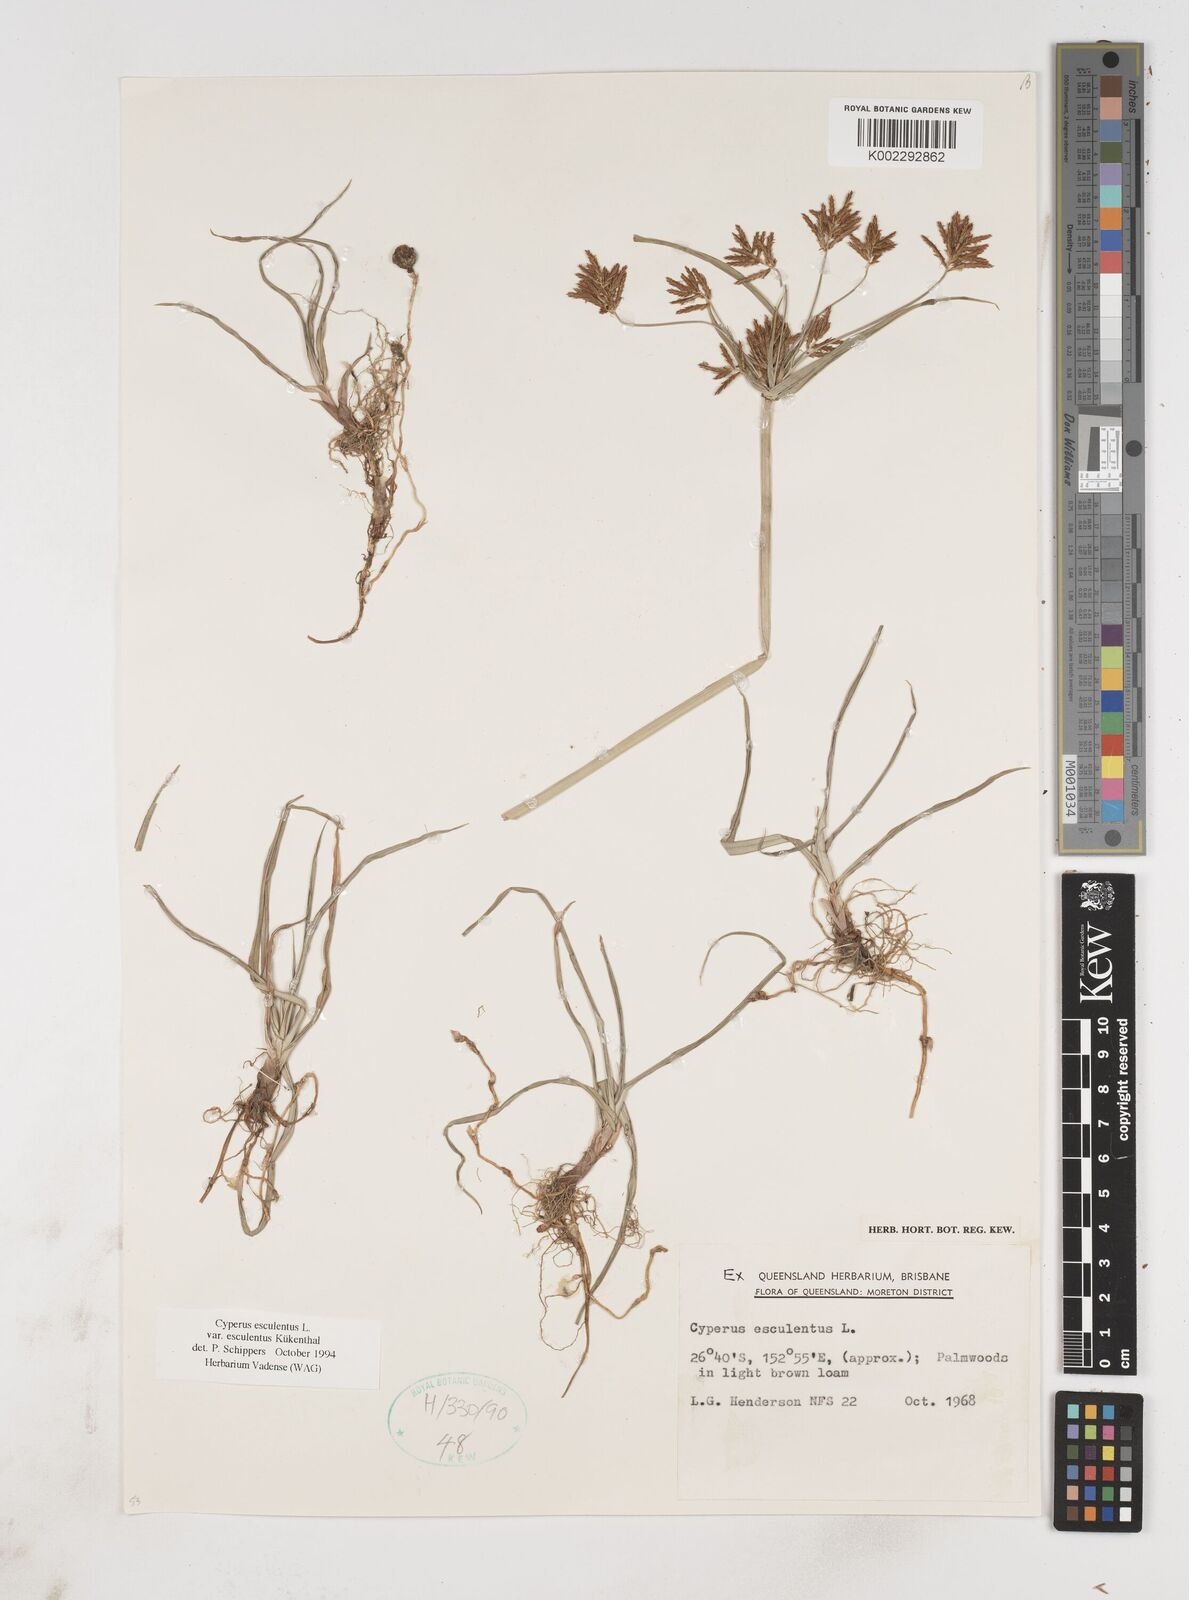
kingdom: Plantae
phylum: Tracheophyta
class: Liliopsida
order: Poales
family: Cyperaceae
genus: Cyperus
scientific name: Cyperus esculentus
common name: Yellow nutsedge
